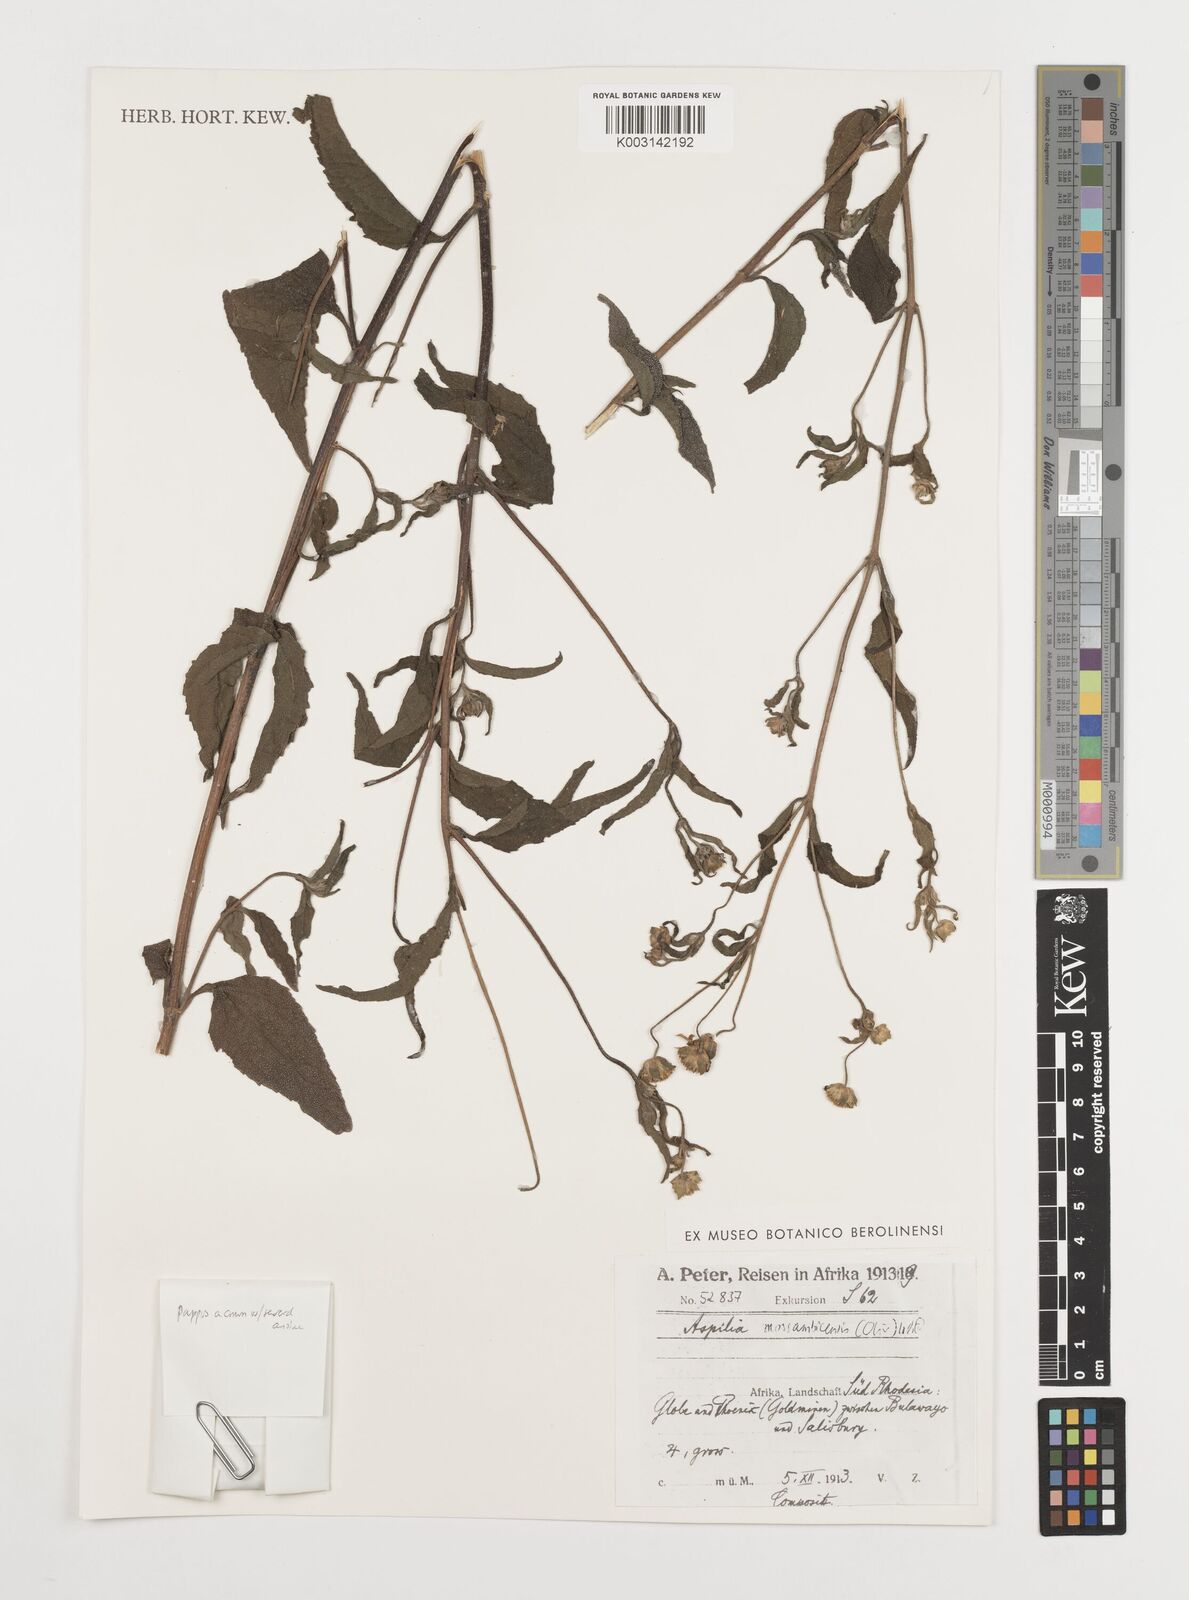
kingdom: Plantae
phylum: Tracheophyta
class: Magnoliopsida
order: Asterales
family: Asteraceae
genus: Aspilia
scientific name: Aspilia mossambicensis
